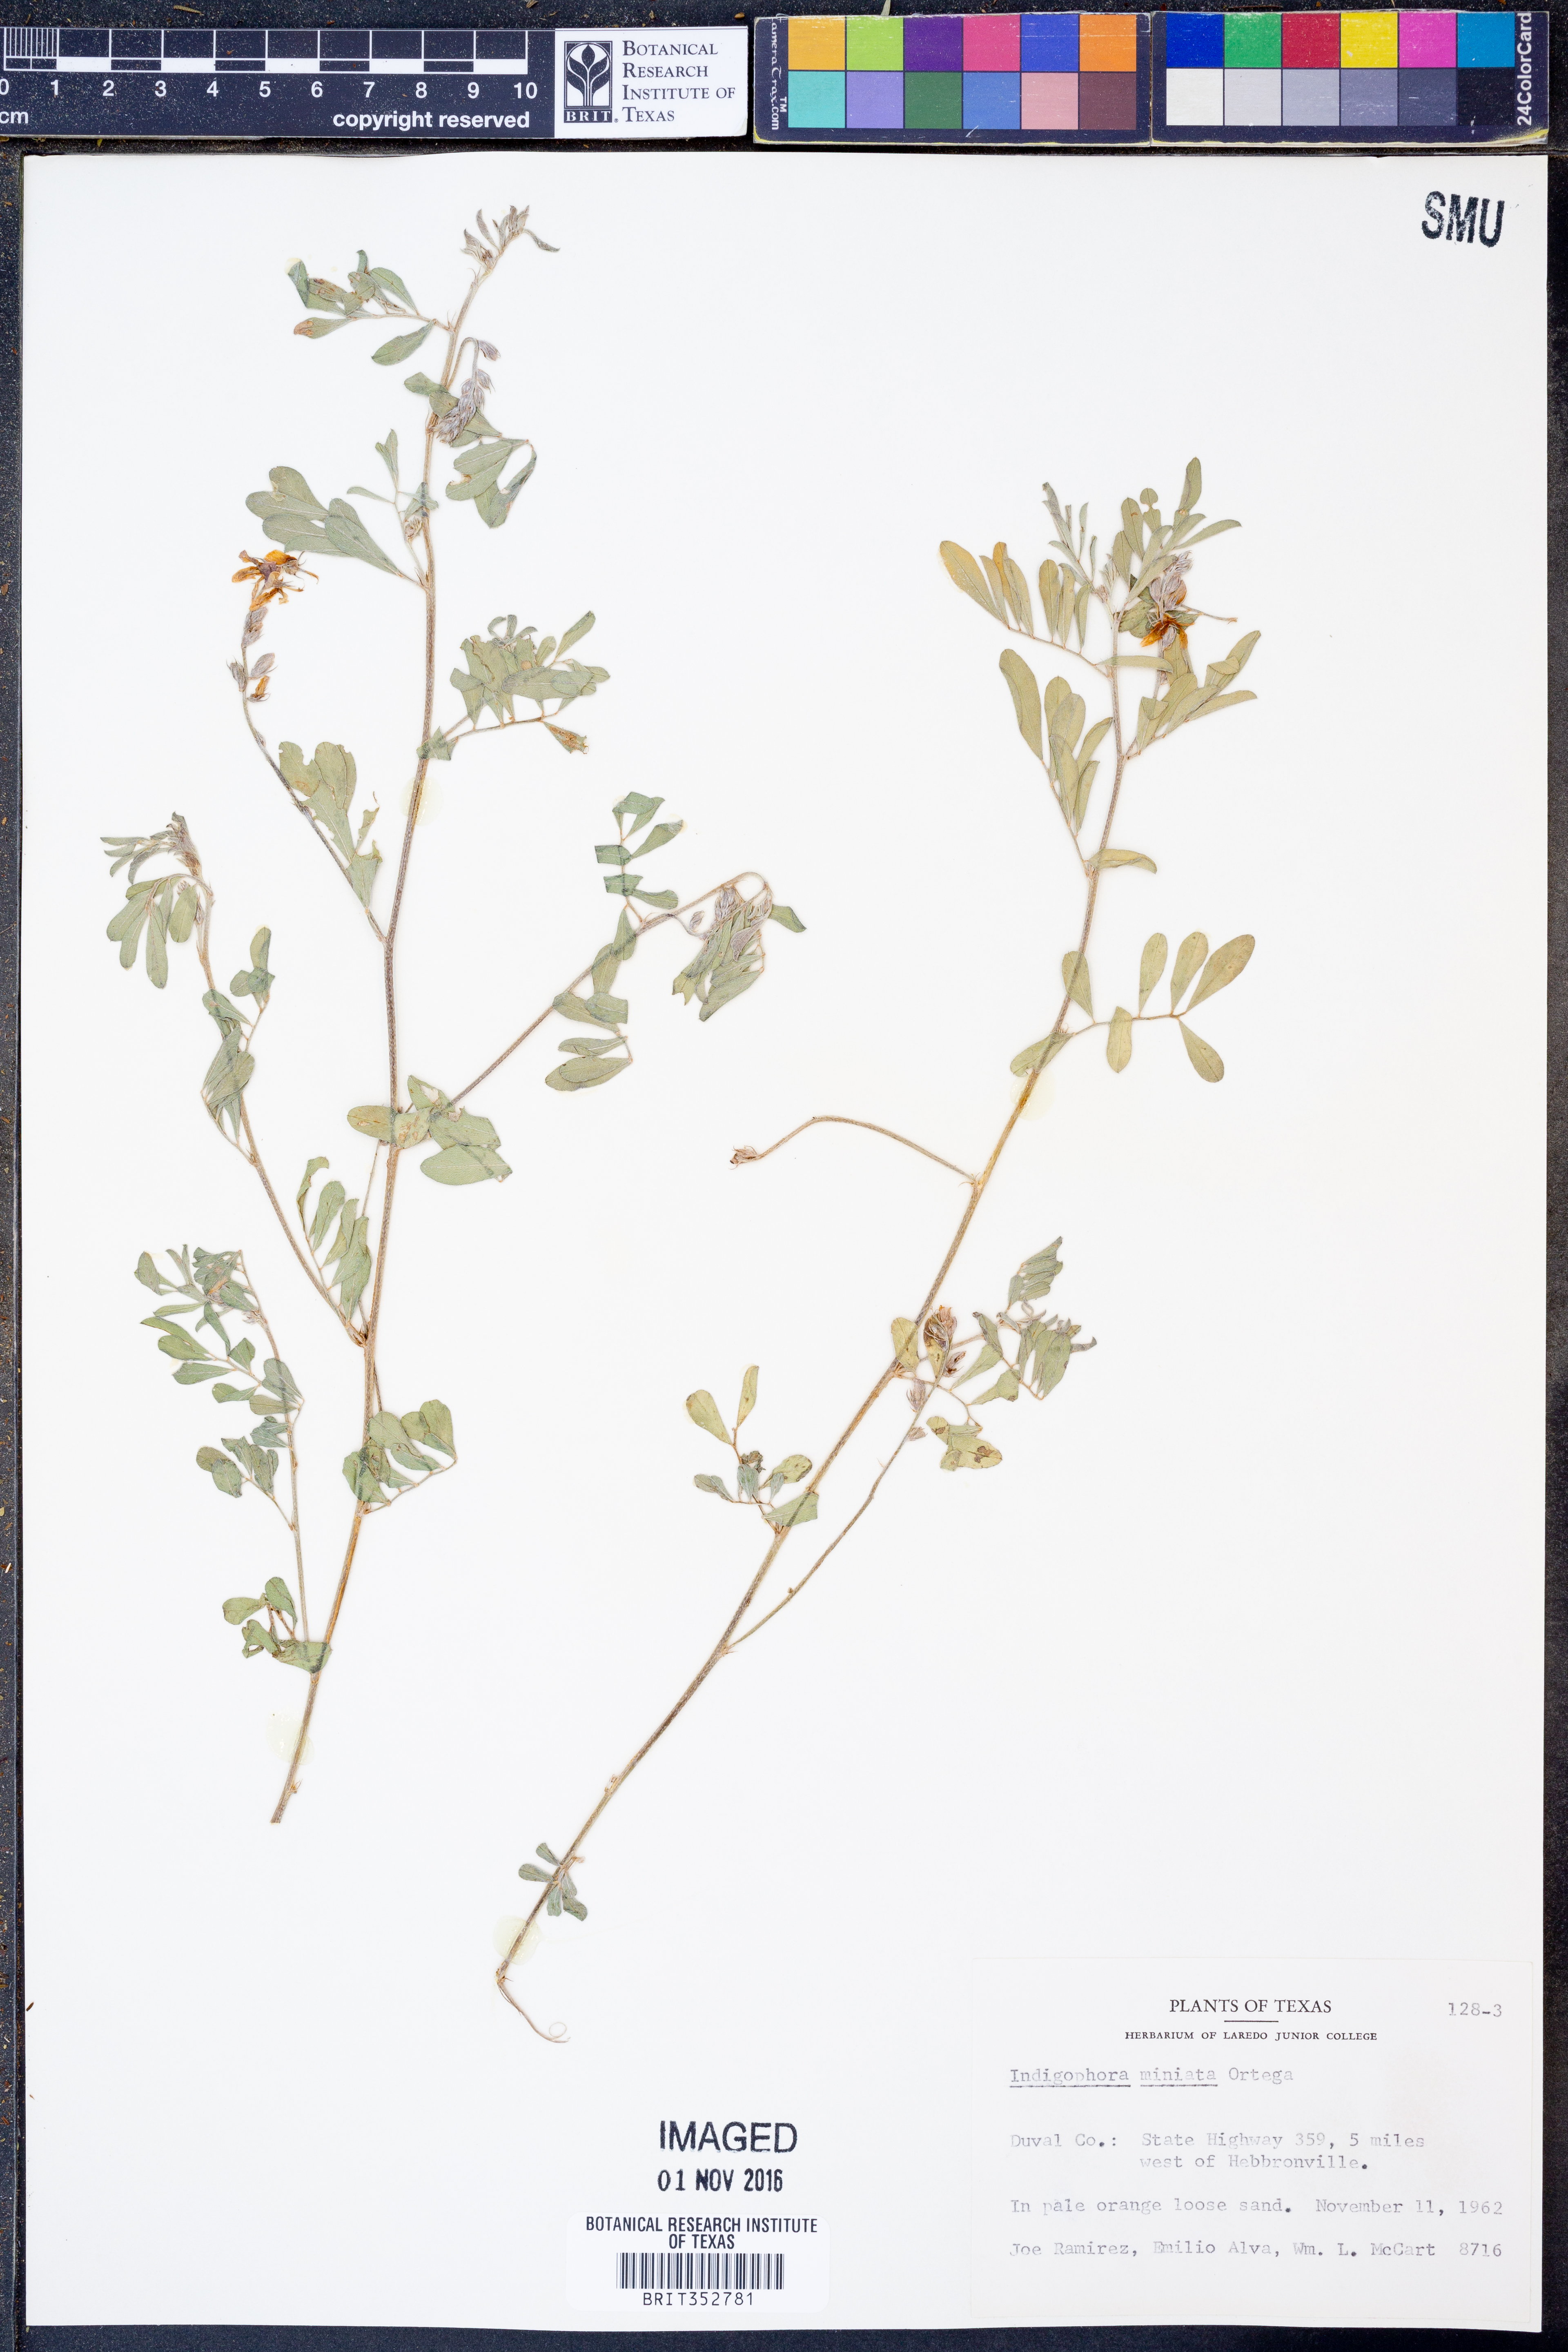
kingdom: Plantae
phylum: Tracheophyta
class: Magnoliopsida
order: Fabales
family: Fabaceae
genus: Indigofera
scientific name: Indigofera miniata
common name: Coast indigo
